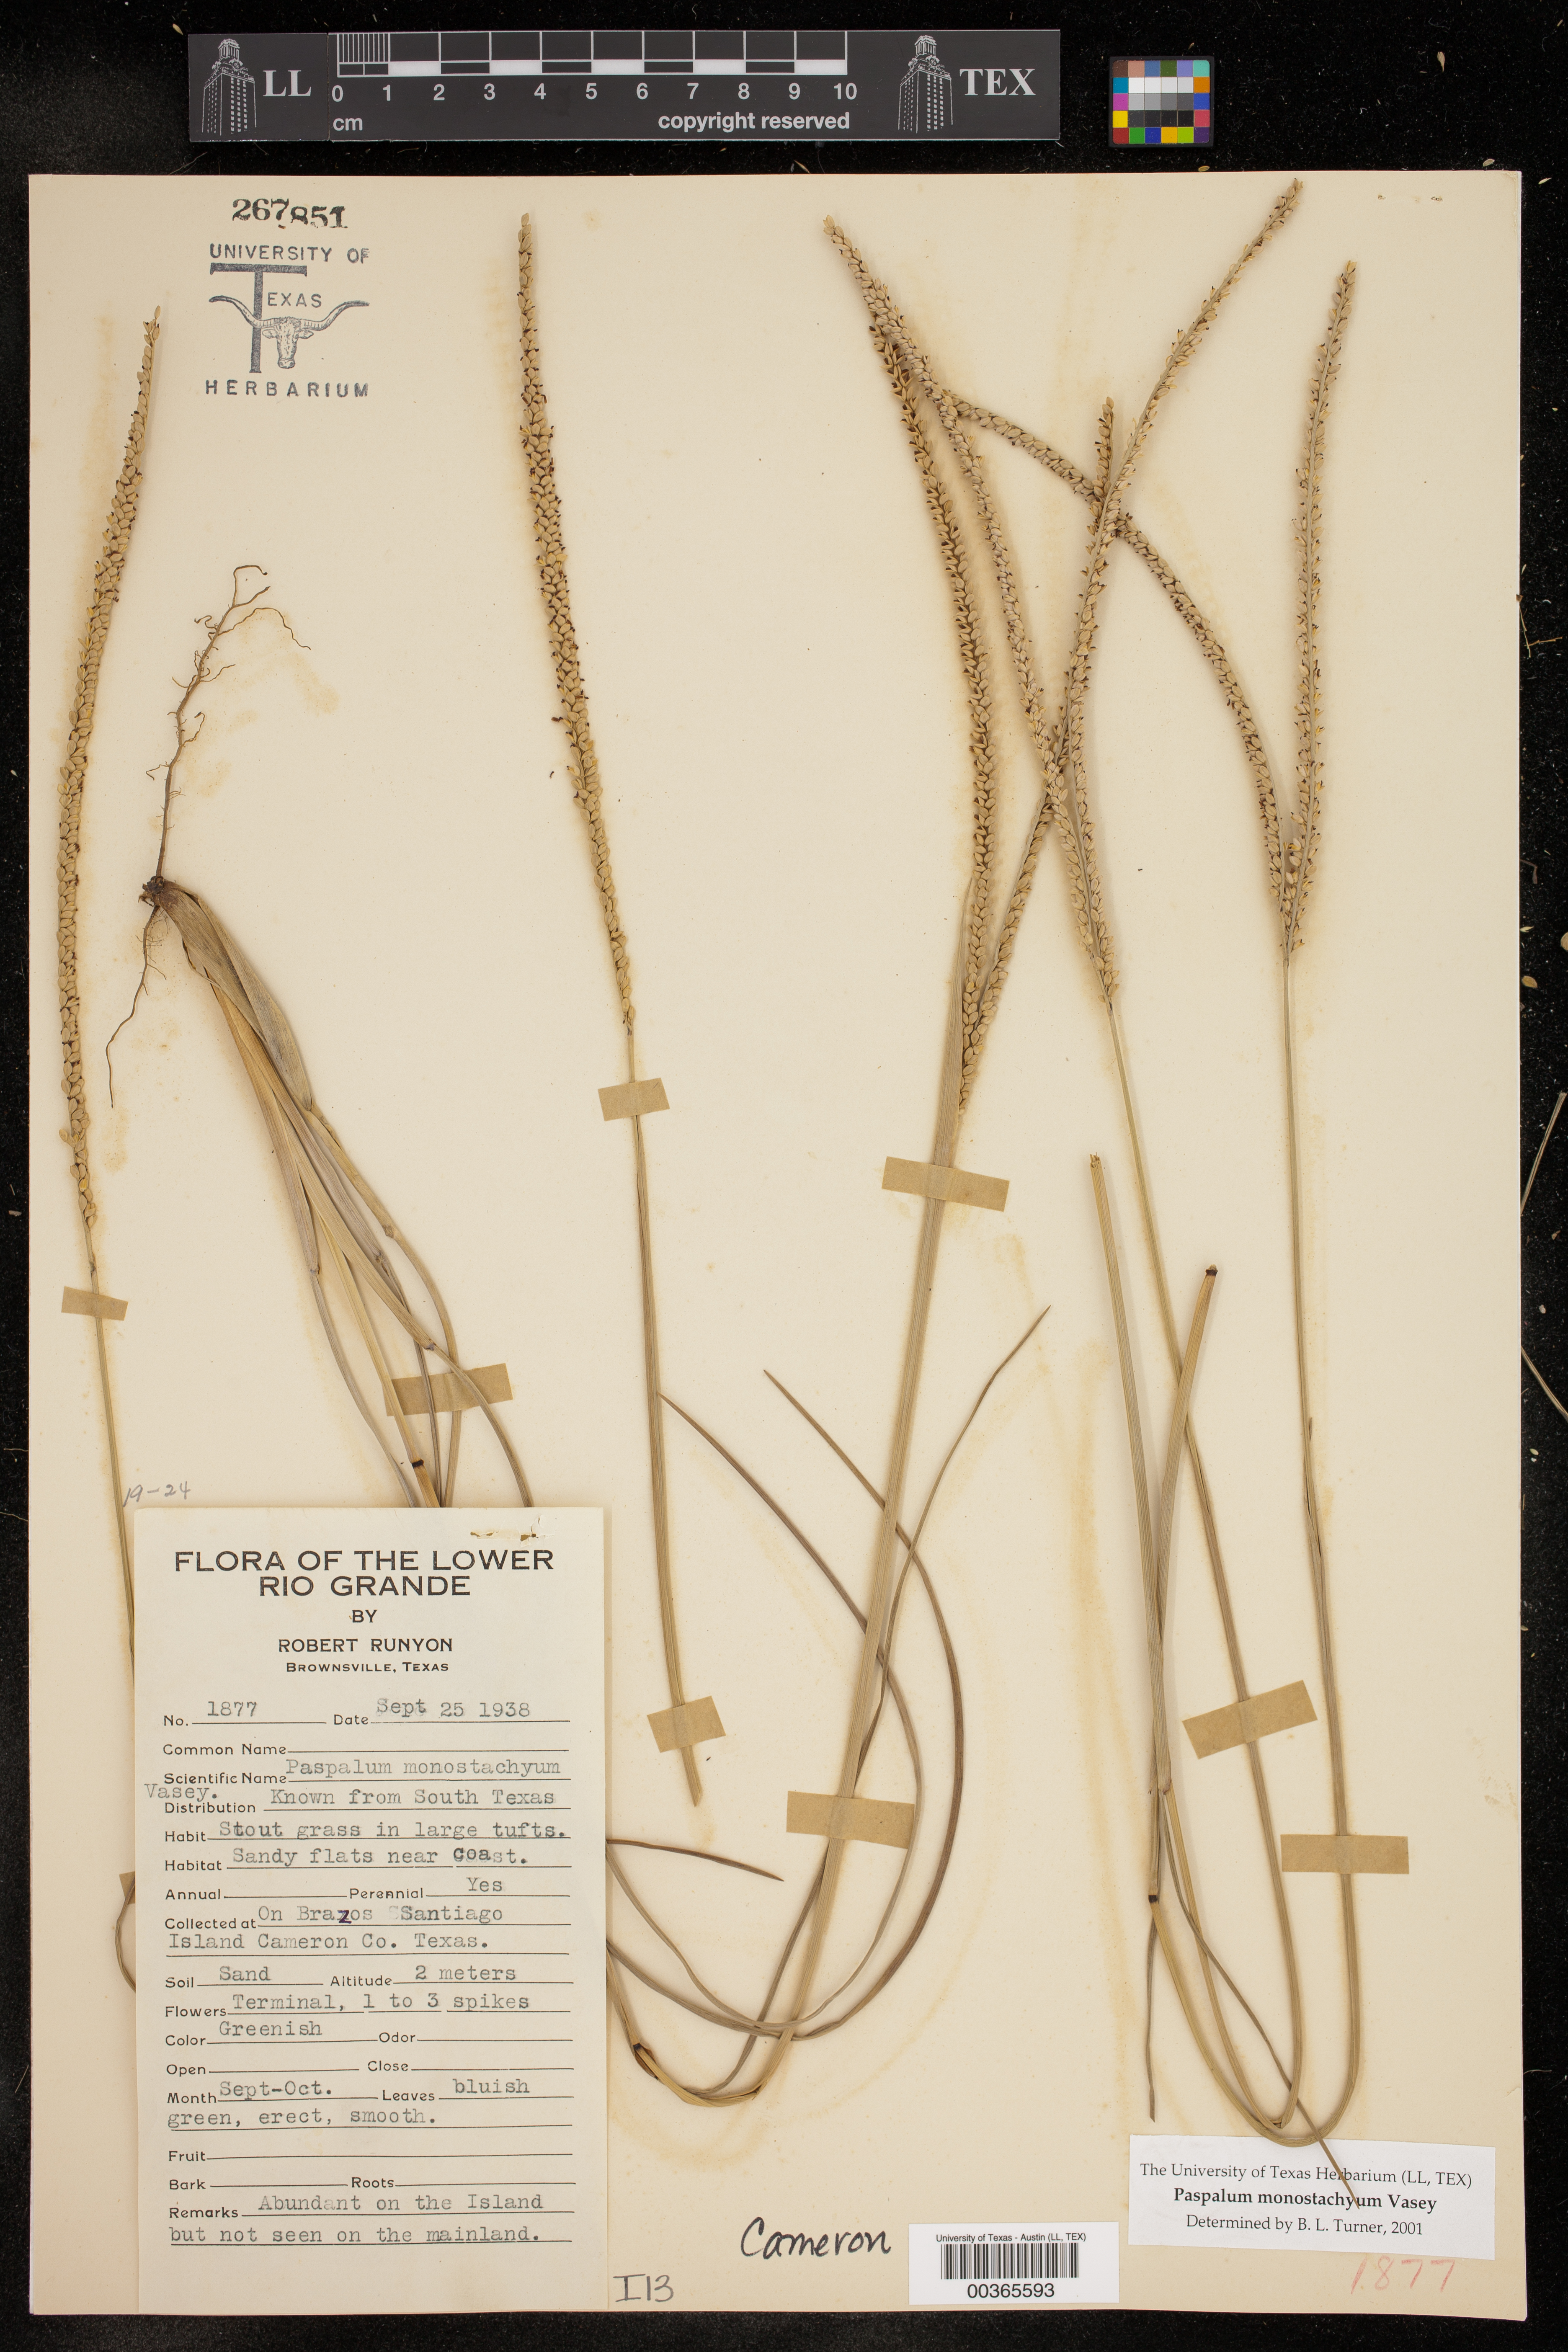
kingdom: Plantae
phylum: Tracheophyta
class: Liliopsida
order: Poales
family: Poaceae
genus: Paspalum
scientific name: Paspalum monostachyum
